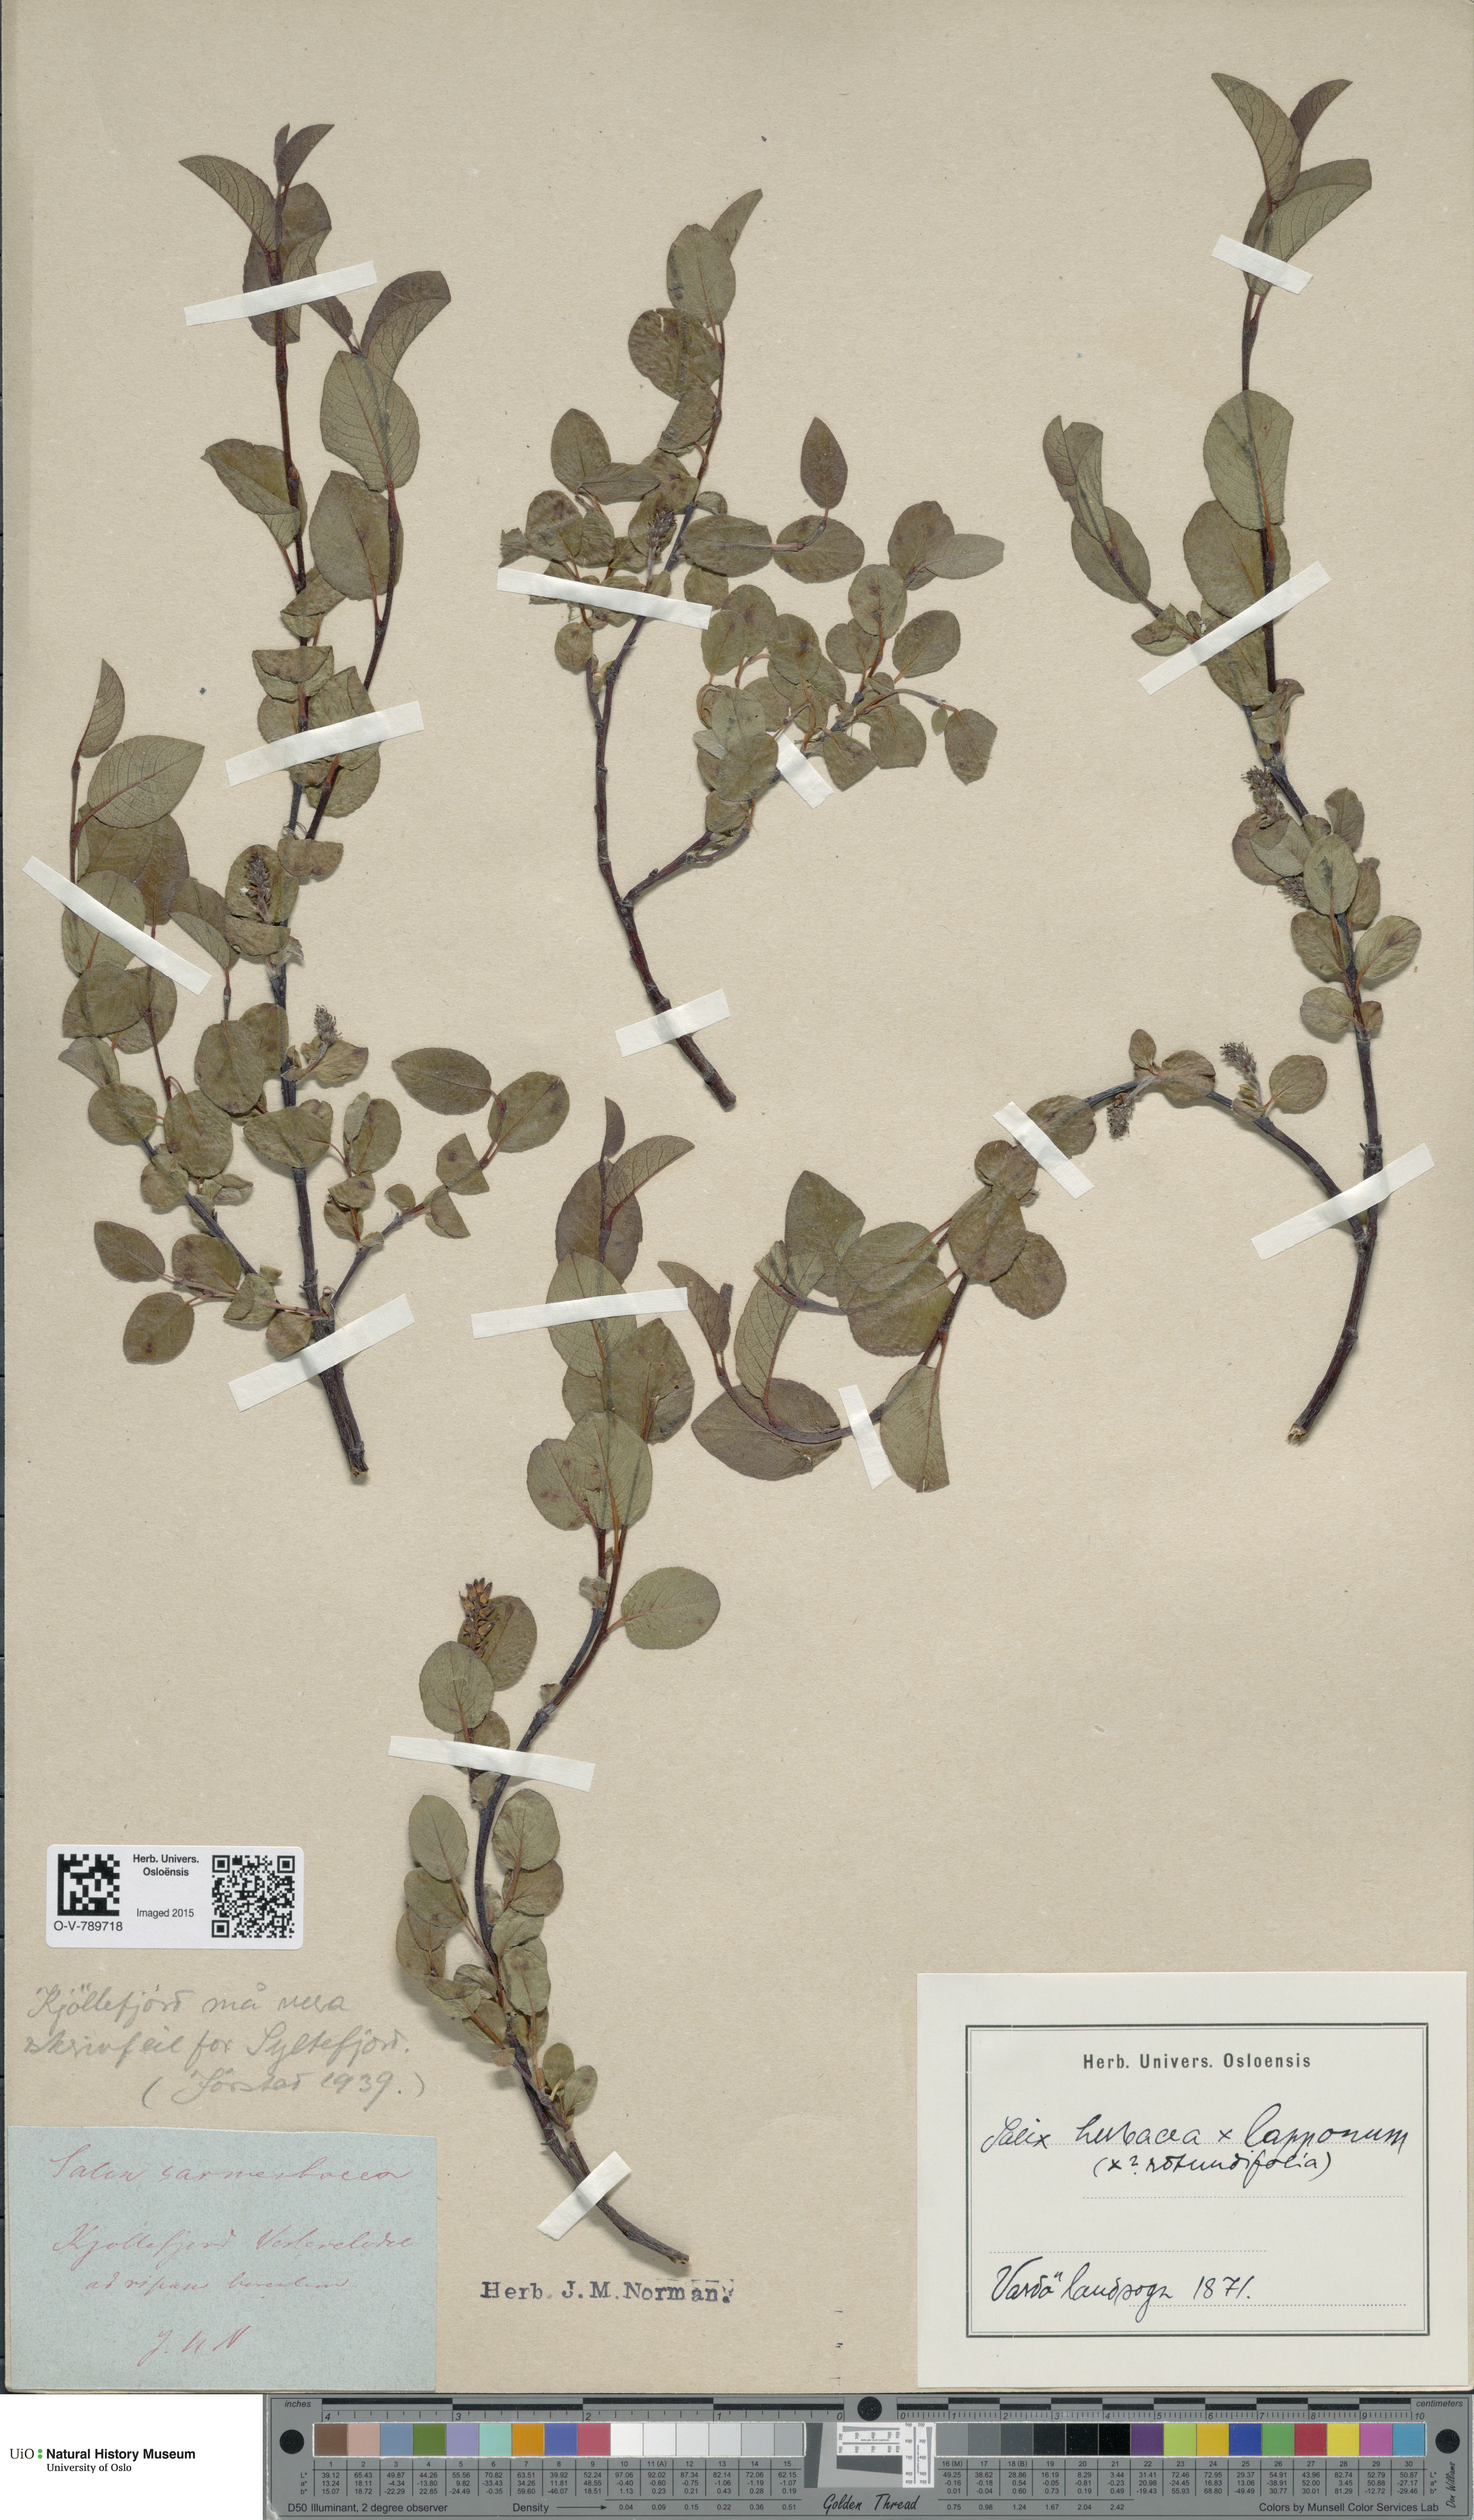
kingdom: Plantae
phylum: Tracheophyta
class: Magnoliopsida
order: Malpighiales
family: Salicaceae
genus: Salix
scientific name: Salix
